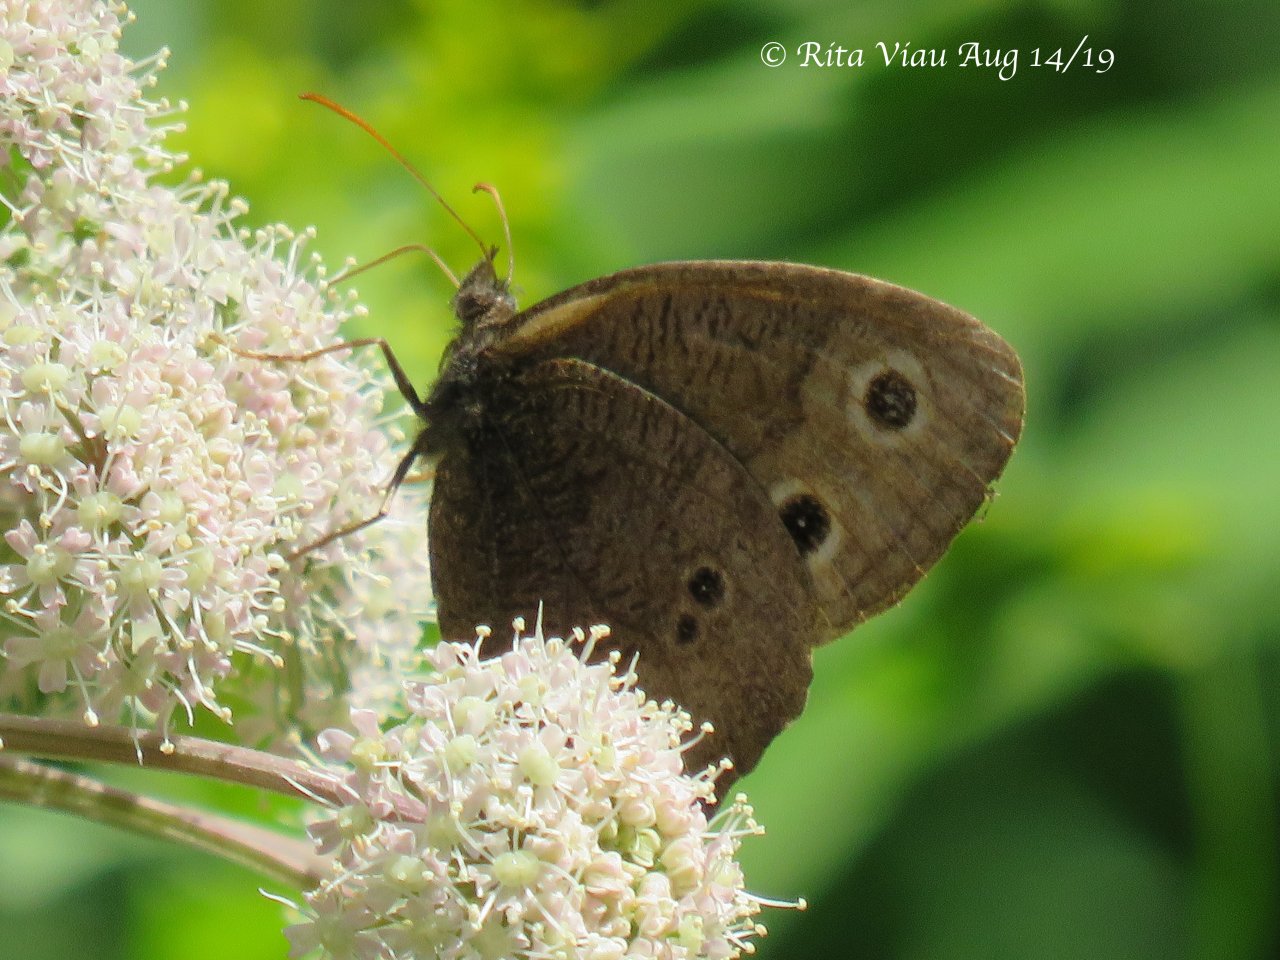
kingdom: Animalia
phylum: Arthropoda
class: Insecta
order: Lepidoptera
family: Nymphalidae
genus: Cercyonis
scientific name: Cercyonis pegala
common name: Common Wood-Nymph
